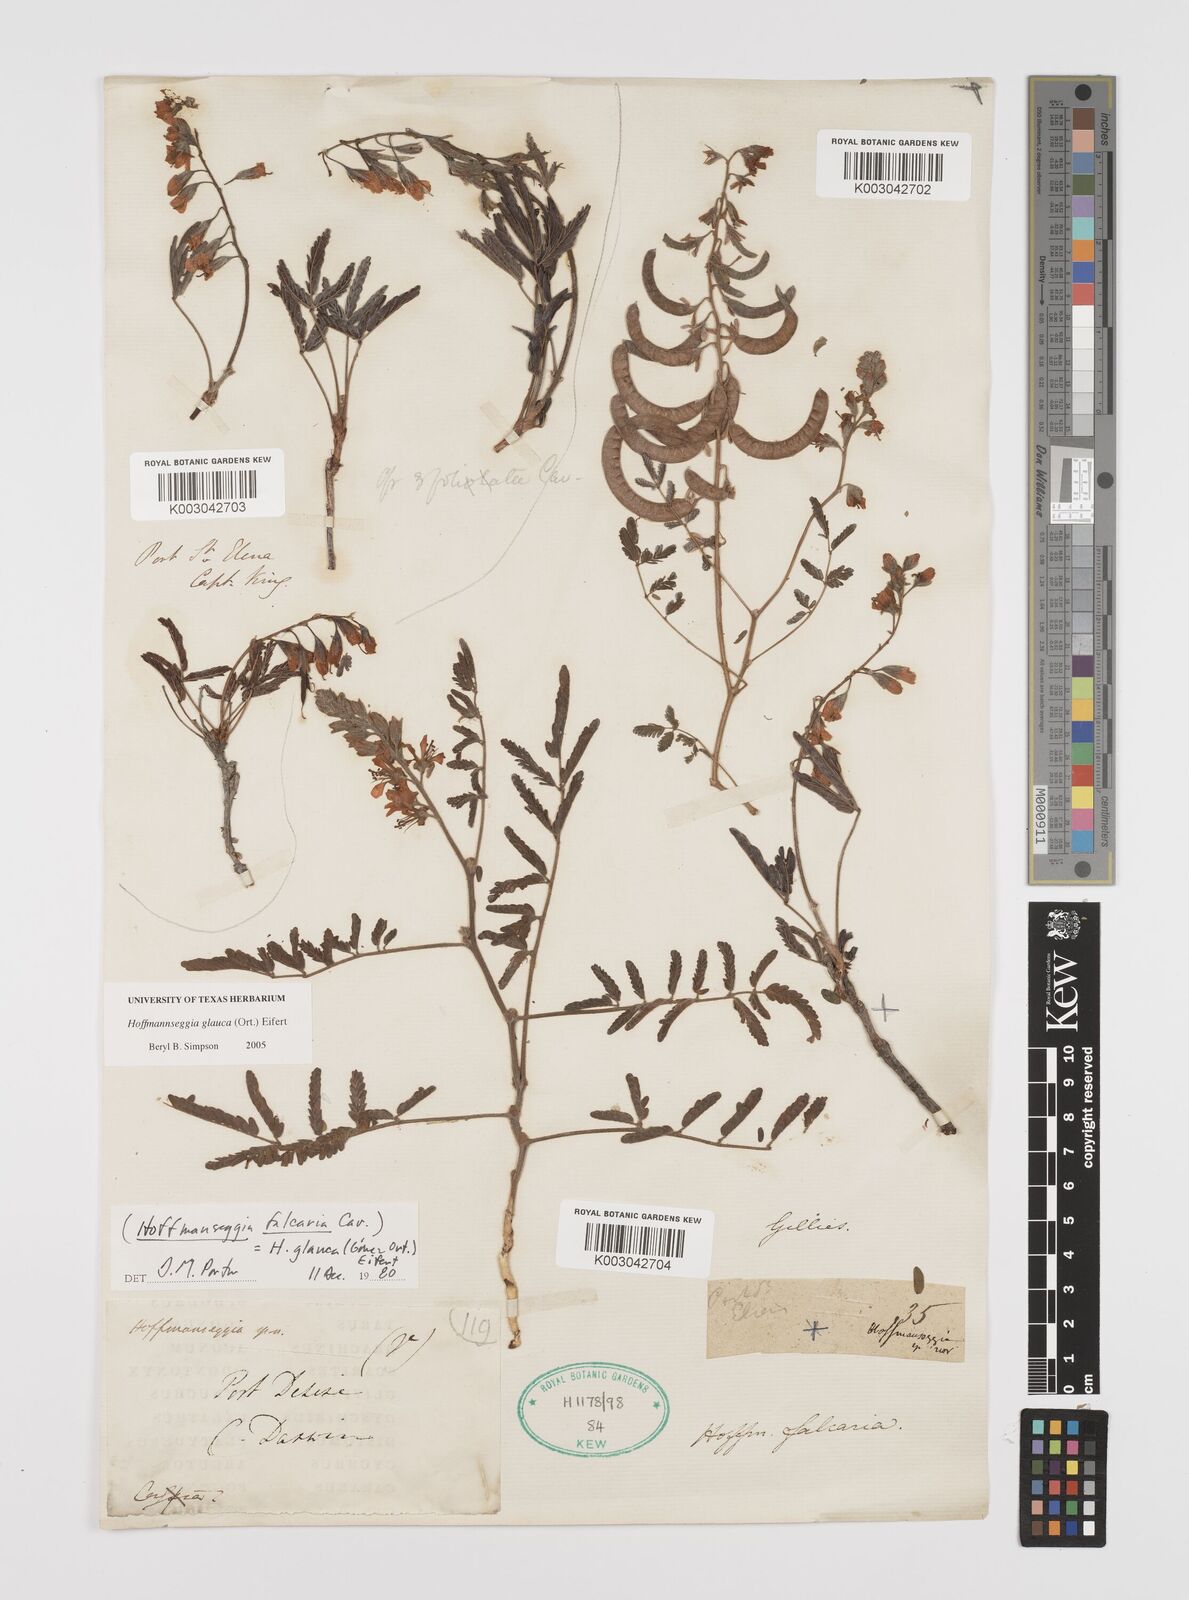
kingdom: Plantae
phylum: Tracheophyta
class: Magnoliopsida
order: Fabales
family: Fabaceae
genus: Hoffmannseggia
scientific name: Hoffmannseggia glauca
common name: Pignut
